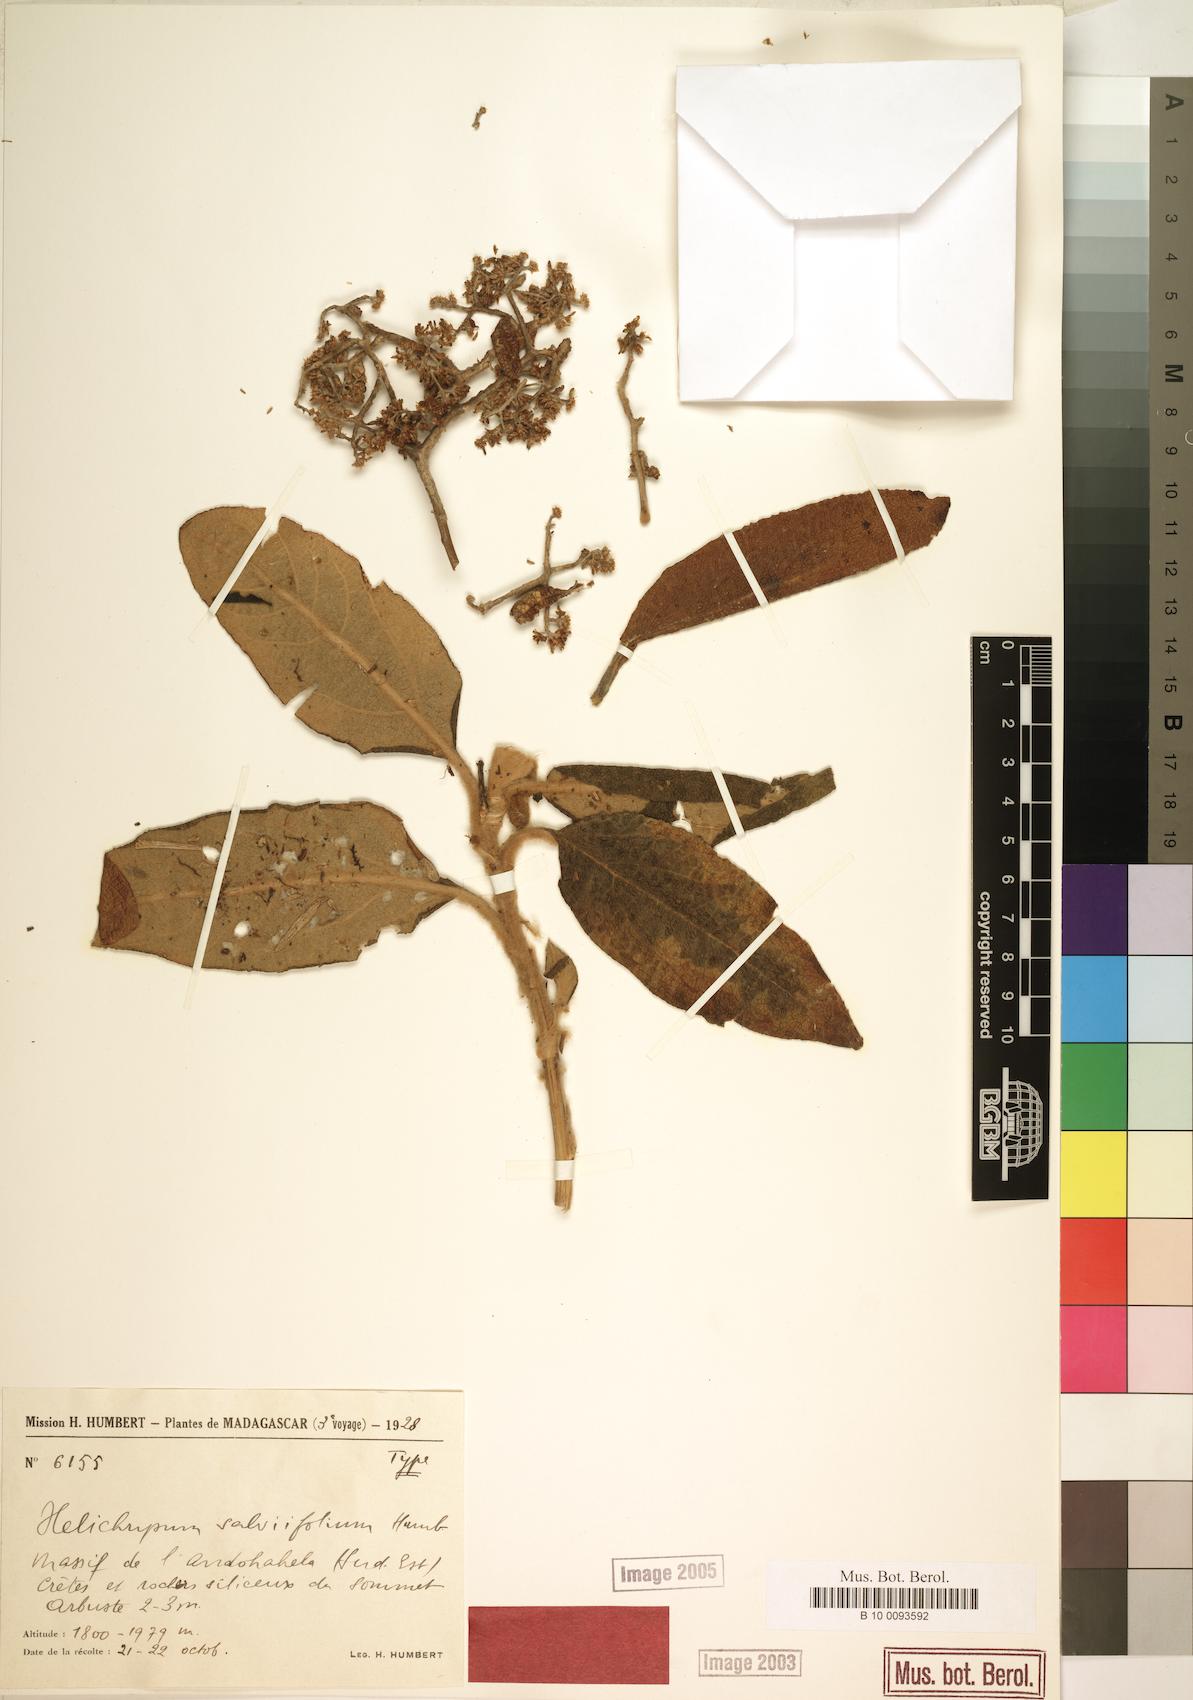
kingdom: Plantae
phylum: Tracheophyta
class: Magnoliopsida
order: Asterales
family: Asteraceae
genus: Helichrysum
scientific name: Helichrysum salviifolium
